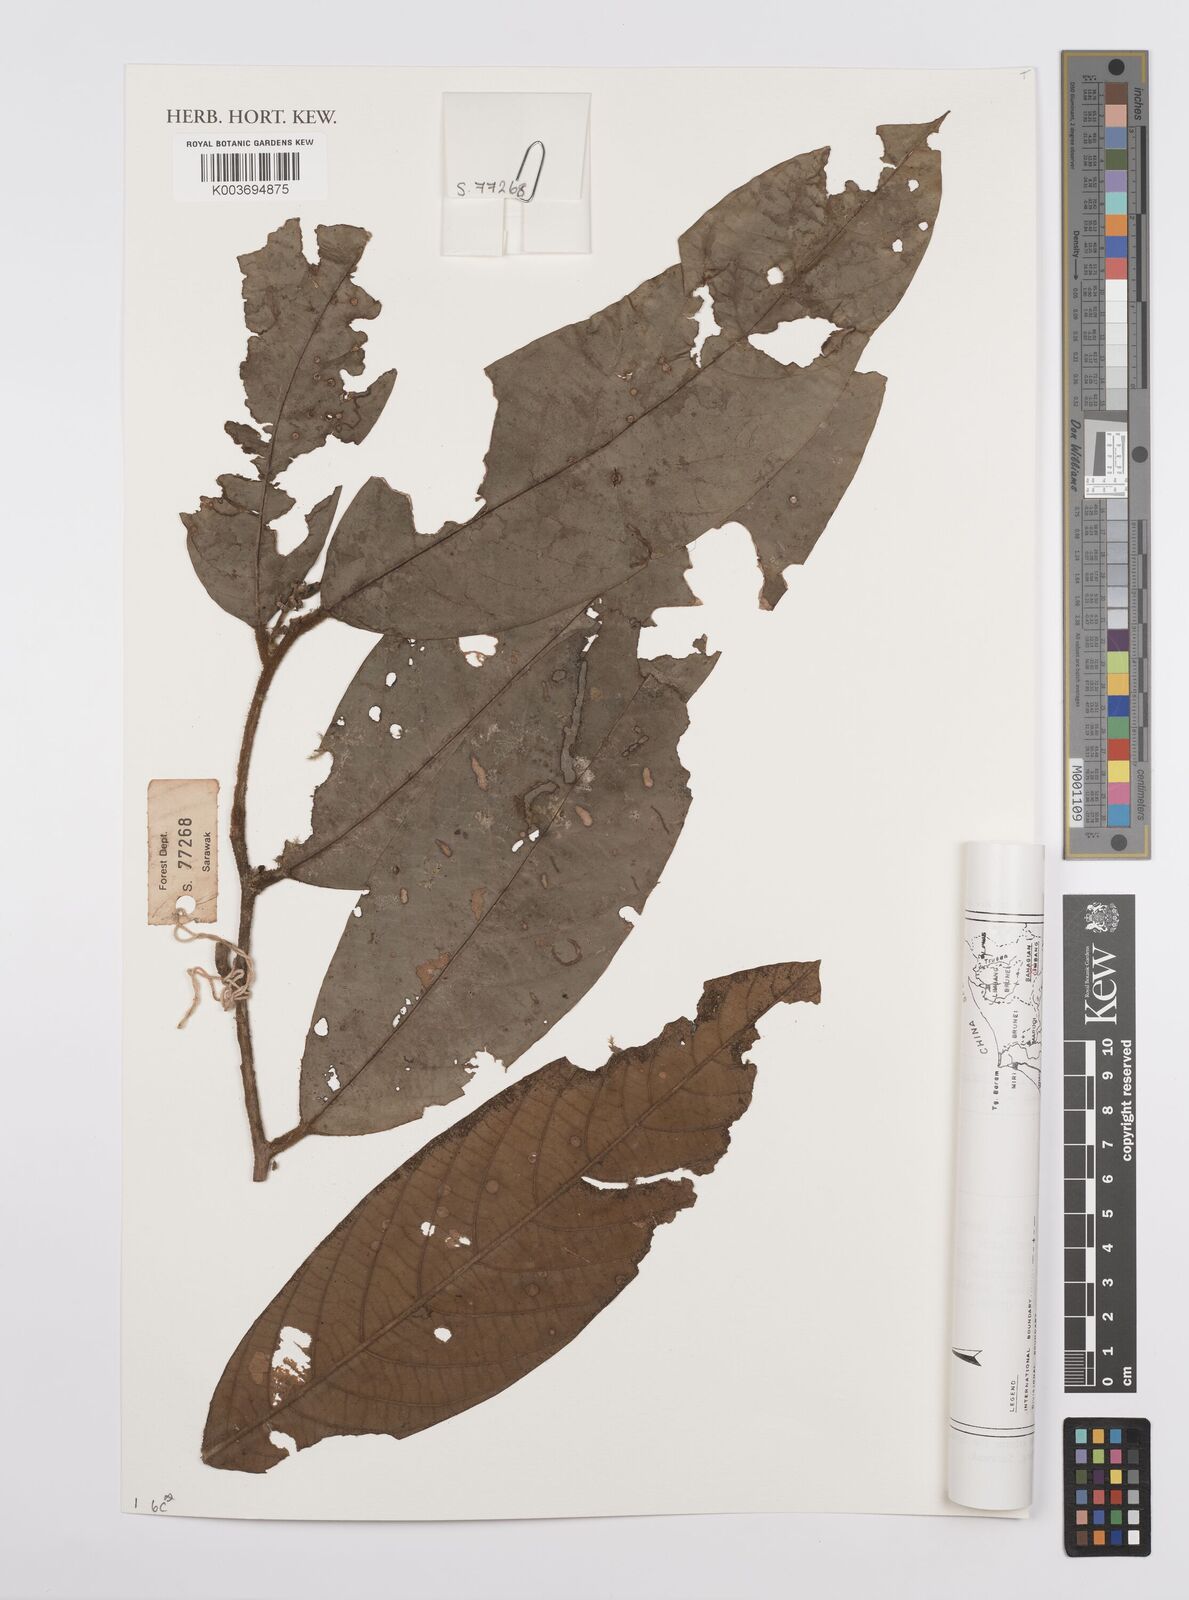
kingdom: Plantae
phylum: Tracheophyta
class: Magnoliopsida
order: Laurales
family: Lauraceae
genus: Cryptocarya
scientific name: Cryptocarya
